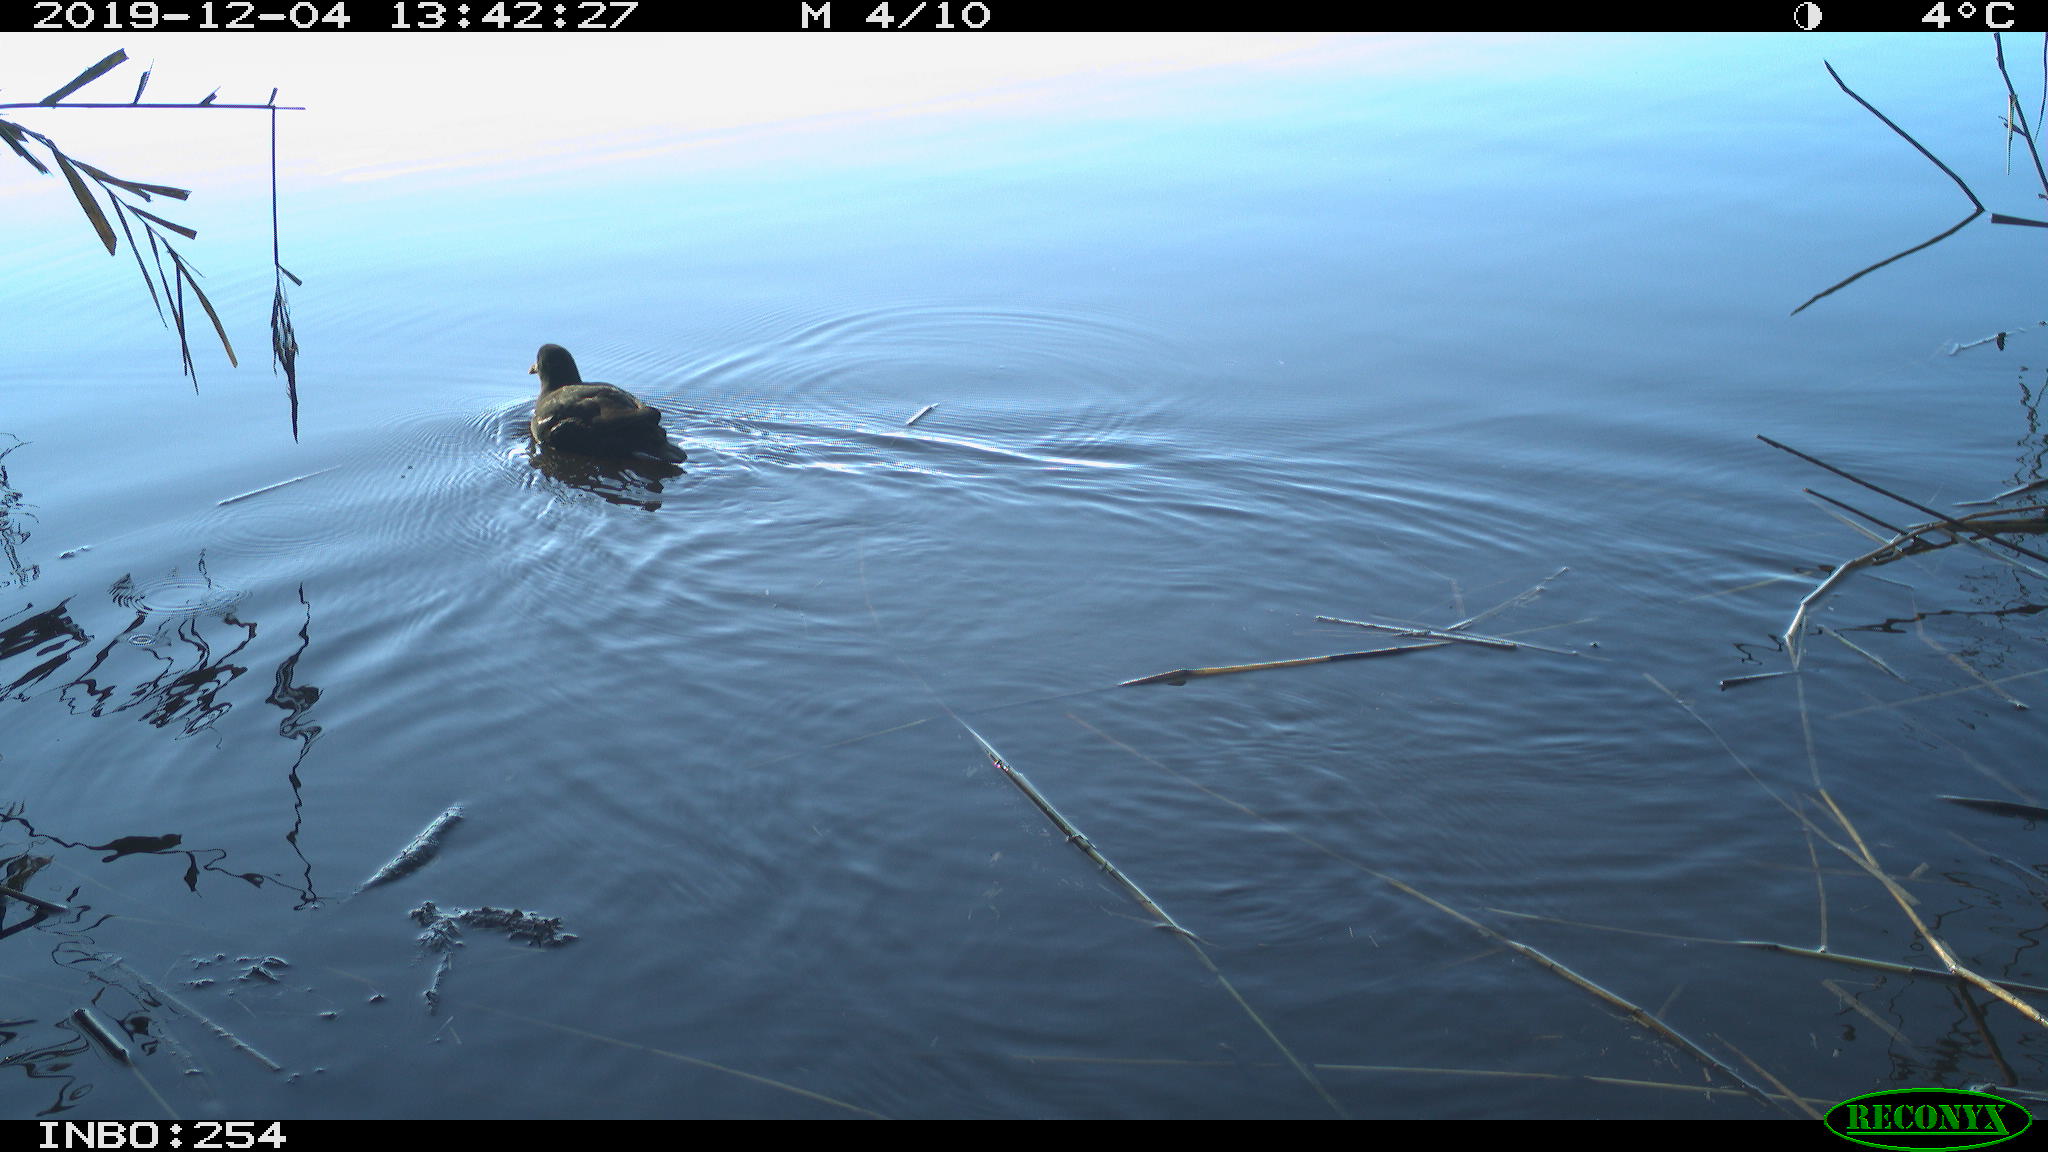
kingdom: Animalia
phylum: Chordata
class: Aves
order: Gruiformes
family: Rallidae
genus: Gallinula
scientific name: Gallinula chloropus
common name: Common moorhen
